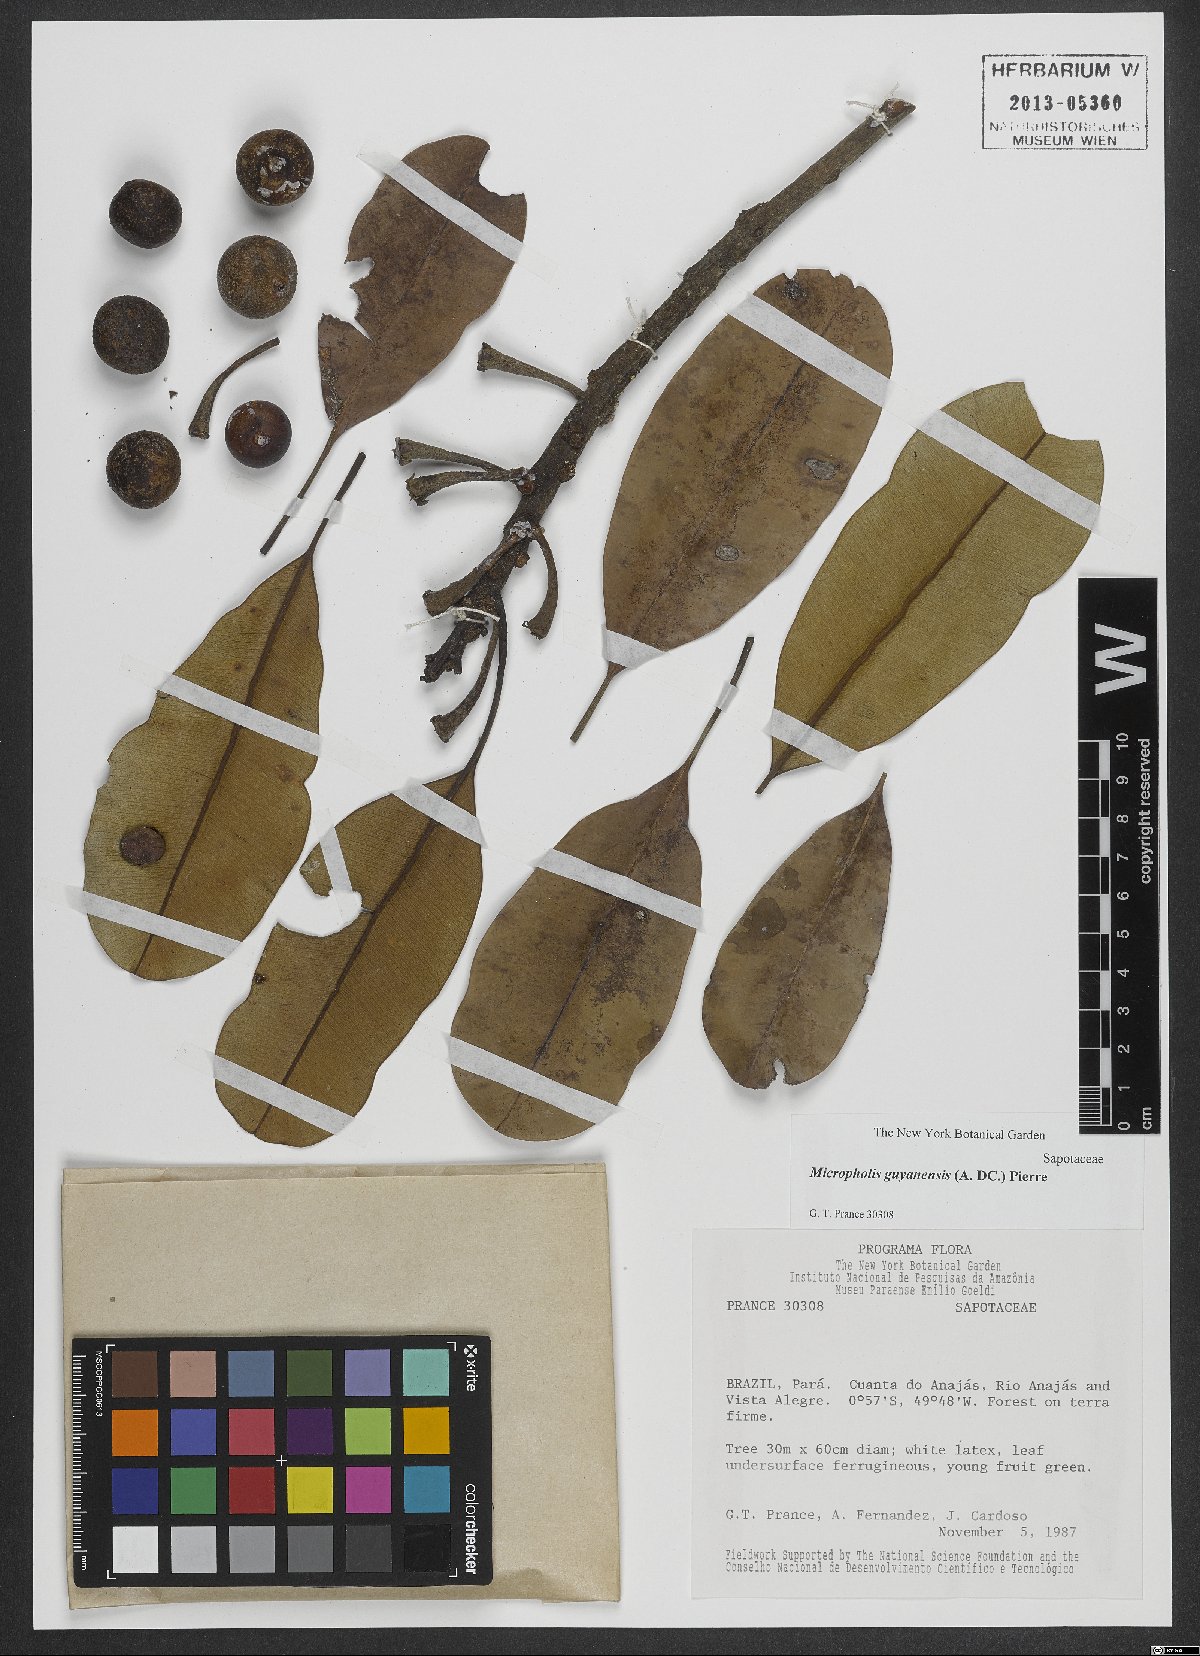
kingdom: Plantae
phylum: Tracheophyta
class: Magnoliopsida
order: Ericales
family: Sapotaceae
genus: Micropholis
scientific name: Micropholis guyanensis
